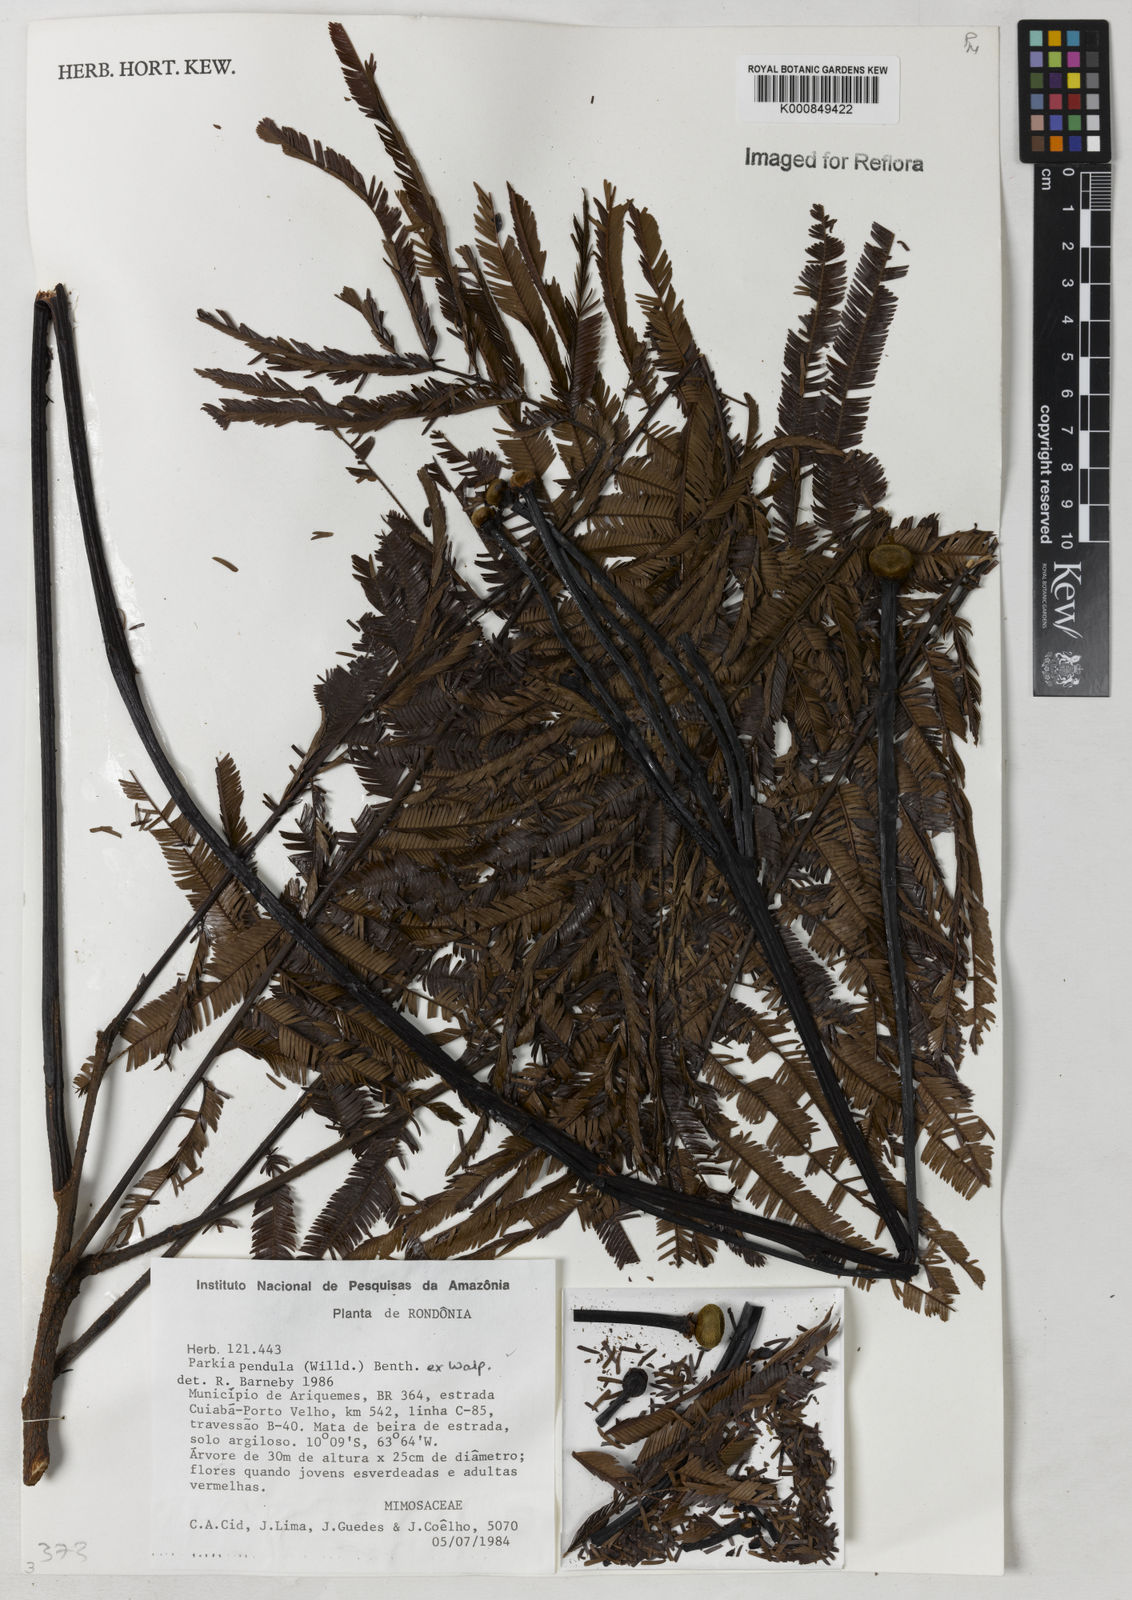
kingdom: Plantae
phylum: Tracheophyta
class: Magnoliopsida
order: Fabales
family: Fabaceae
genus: Parkia
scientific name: Parkia pendula
